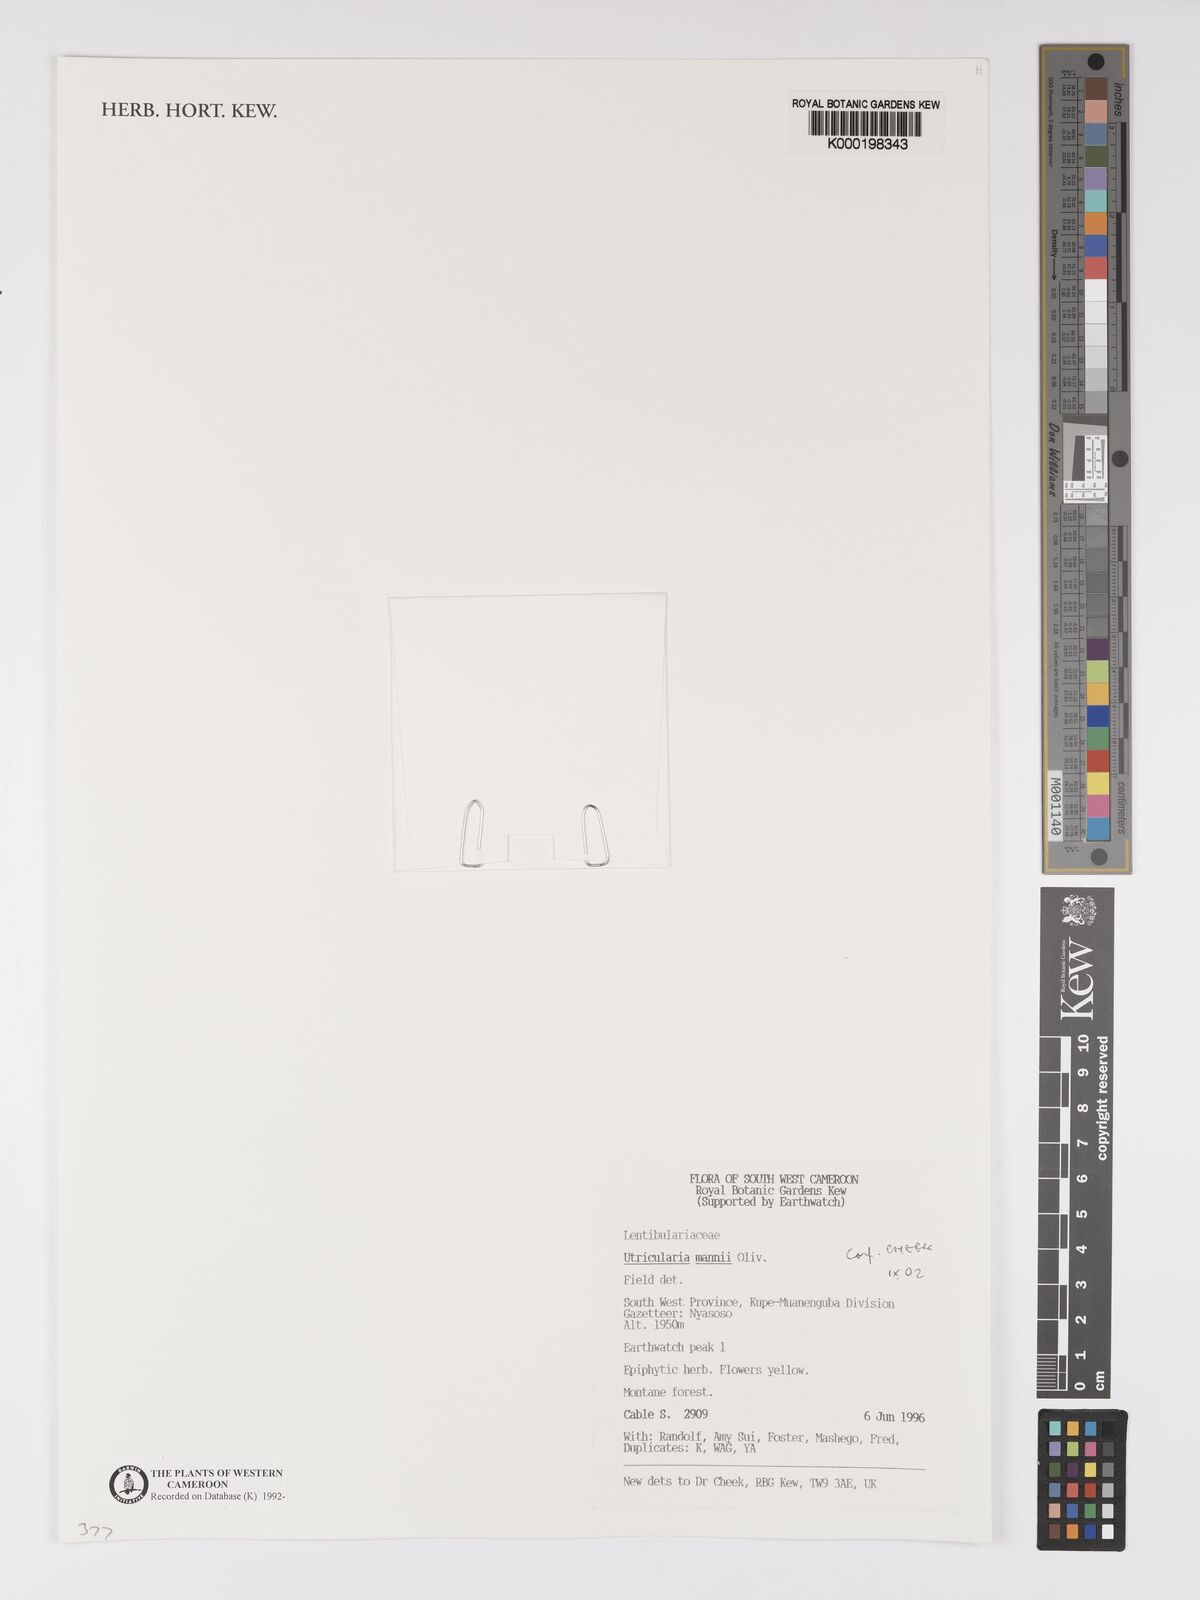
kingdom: Plantae
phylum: Tracheophyta
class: Magnoliopsida
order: Lamiales
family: Lentibulariaceae
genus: Utricularia
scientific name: Utricularia mannii
